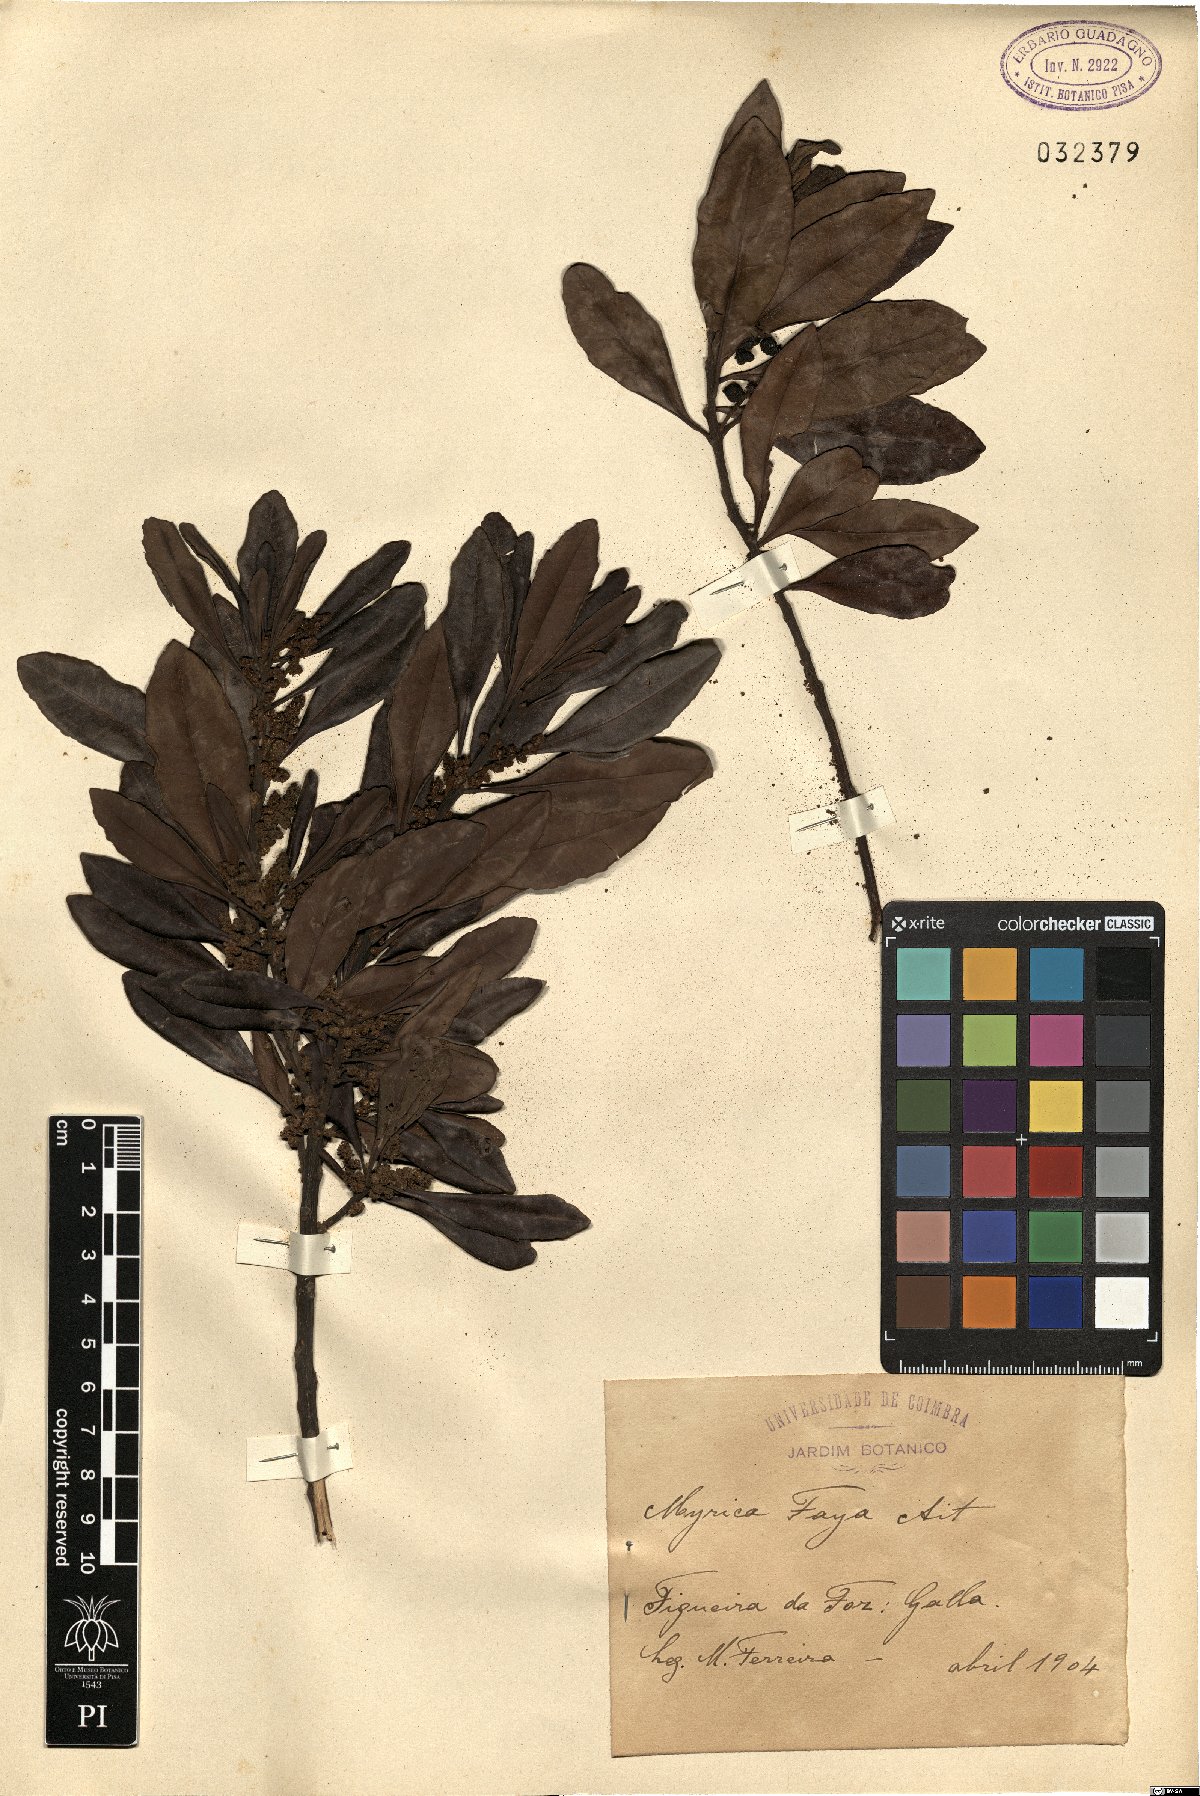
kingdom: Plantae
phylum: Tracheophyta
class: Magnoliopsida
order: Fagales
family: Myricaceae
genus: Morella
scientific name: Morella faya
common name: Firetree
